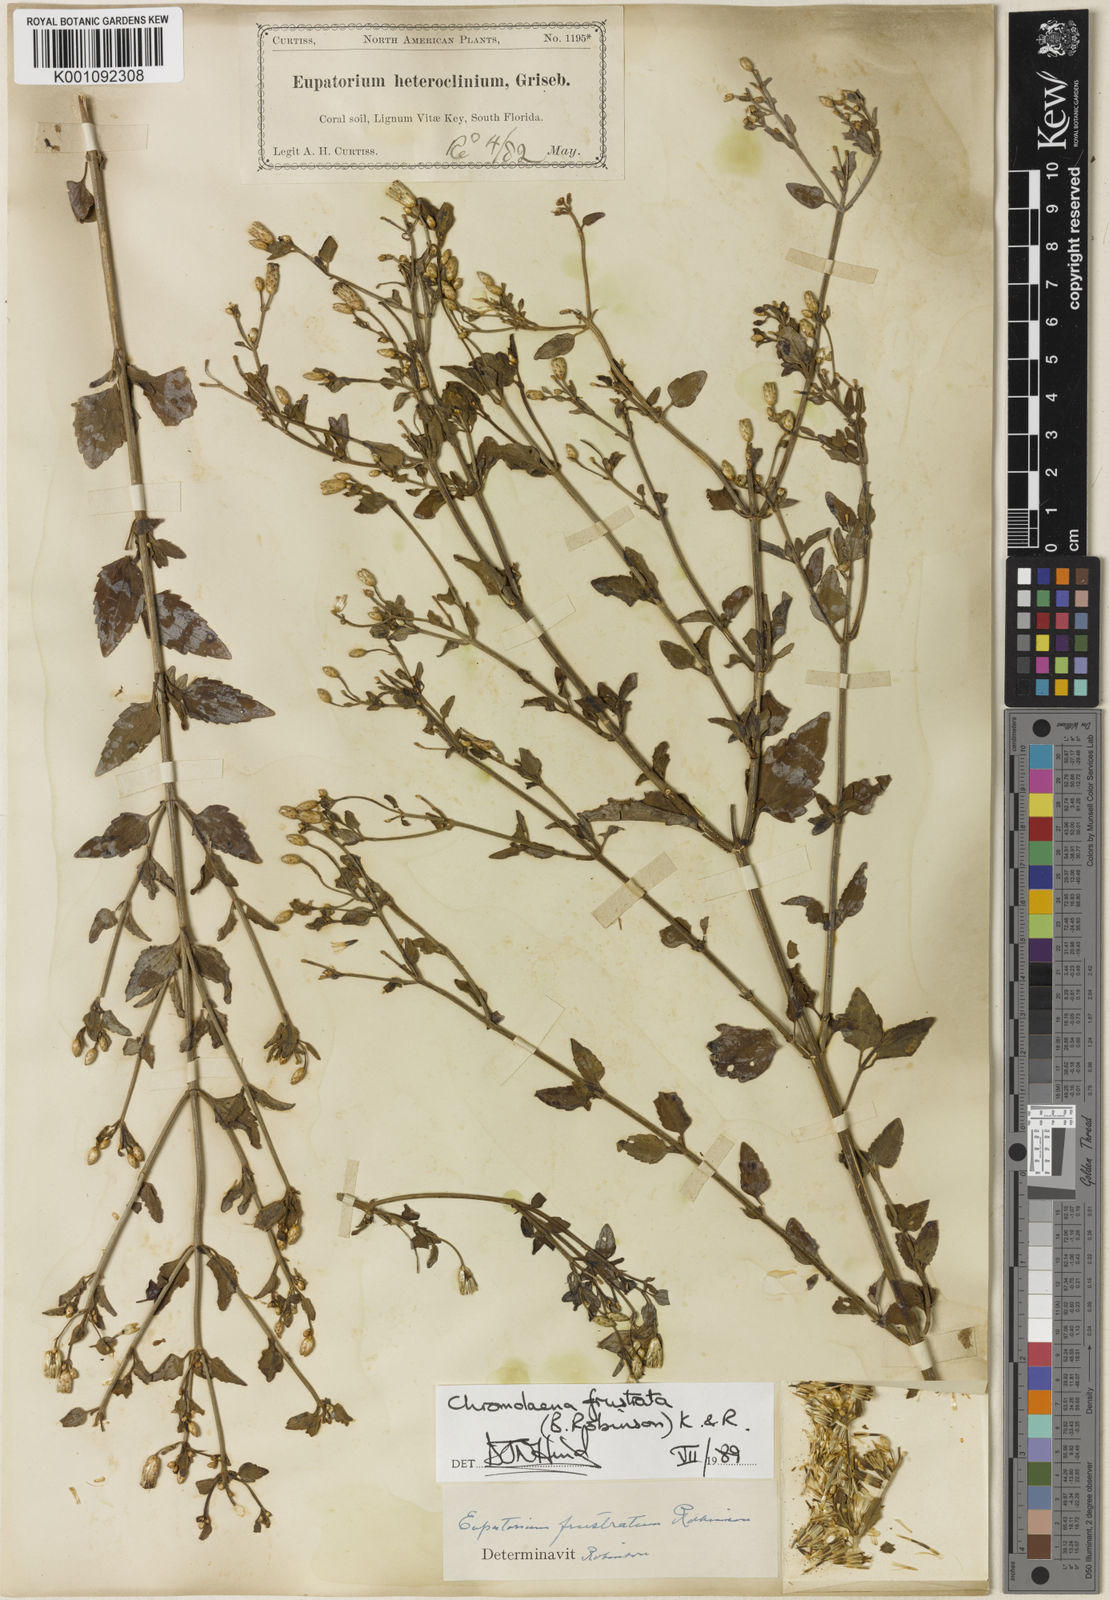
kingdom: Plantae
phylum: Tracheophyta
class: Magnoliopsida
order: Asterales
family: Asteraceae
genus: Chromolaena
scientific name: Chromolaena frustrata
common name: Cape sable false thoroughwort
